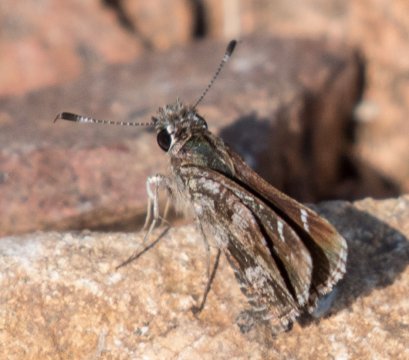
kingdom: Animalia
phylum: Arthropoda
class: Insecta
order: Lepidoptera
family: Hesperiidae
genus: Mastor
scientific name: Mastor nysa
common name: Nysa Roadside-Skipper
